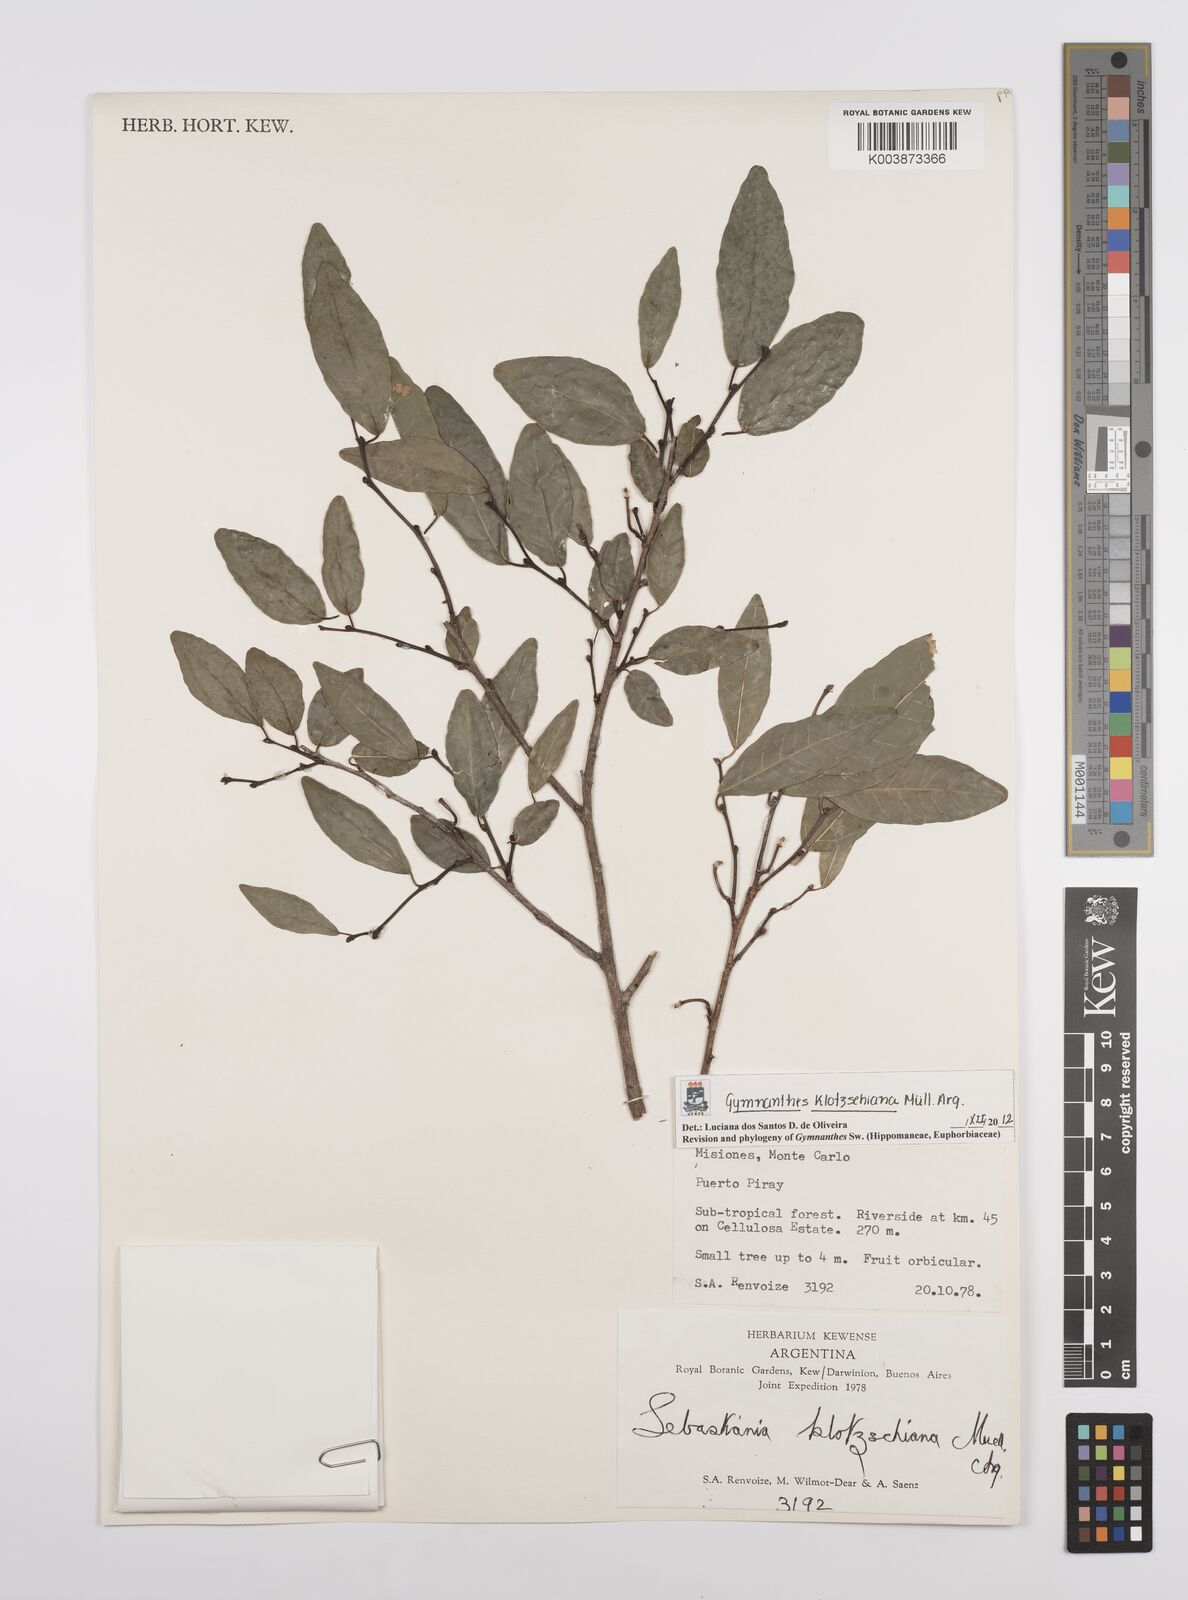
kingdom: Plantae
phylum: Tracheophyta
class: Magnoliopsida
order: Malpighiales
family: Euphorbiaceae
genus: Sebastiania
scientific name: Sebastiania klotzschiana
